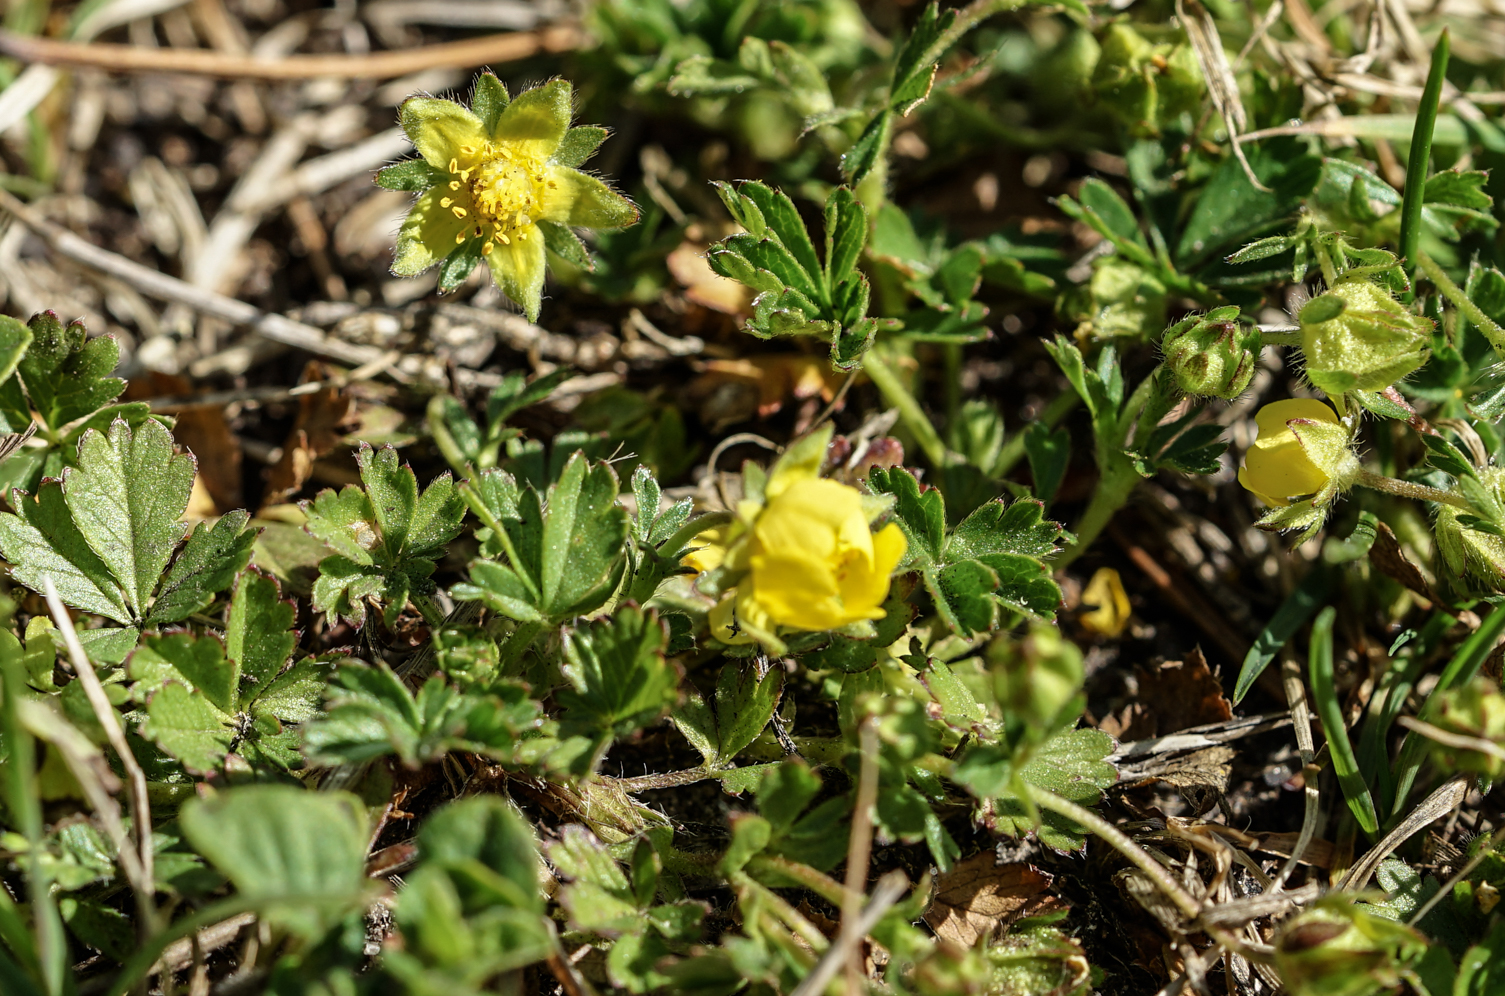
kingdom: Plantae
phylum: Tracheophyta
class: Magnoliopsida
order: Rosales
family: Rosaceae
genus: Potentilla
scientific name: Potentilla verna
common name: Spring cinquefoil
